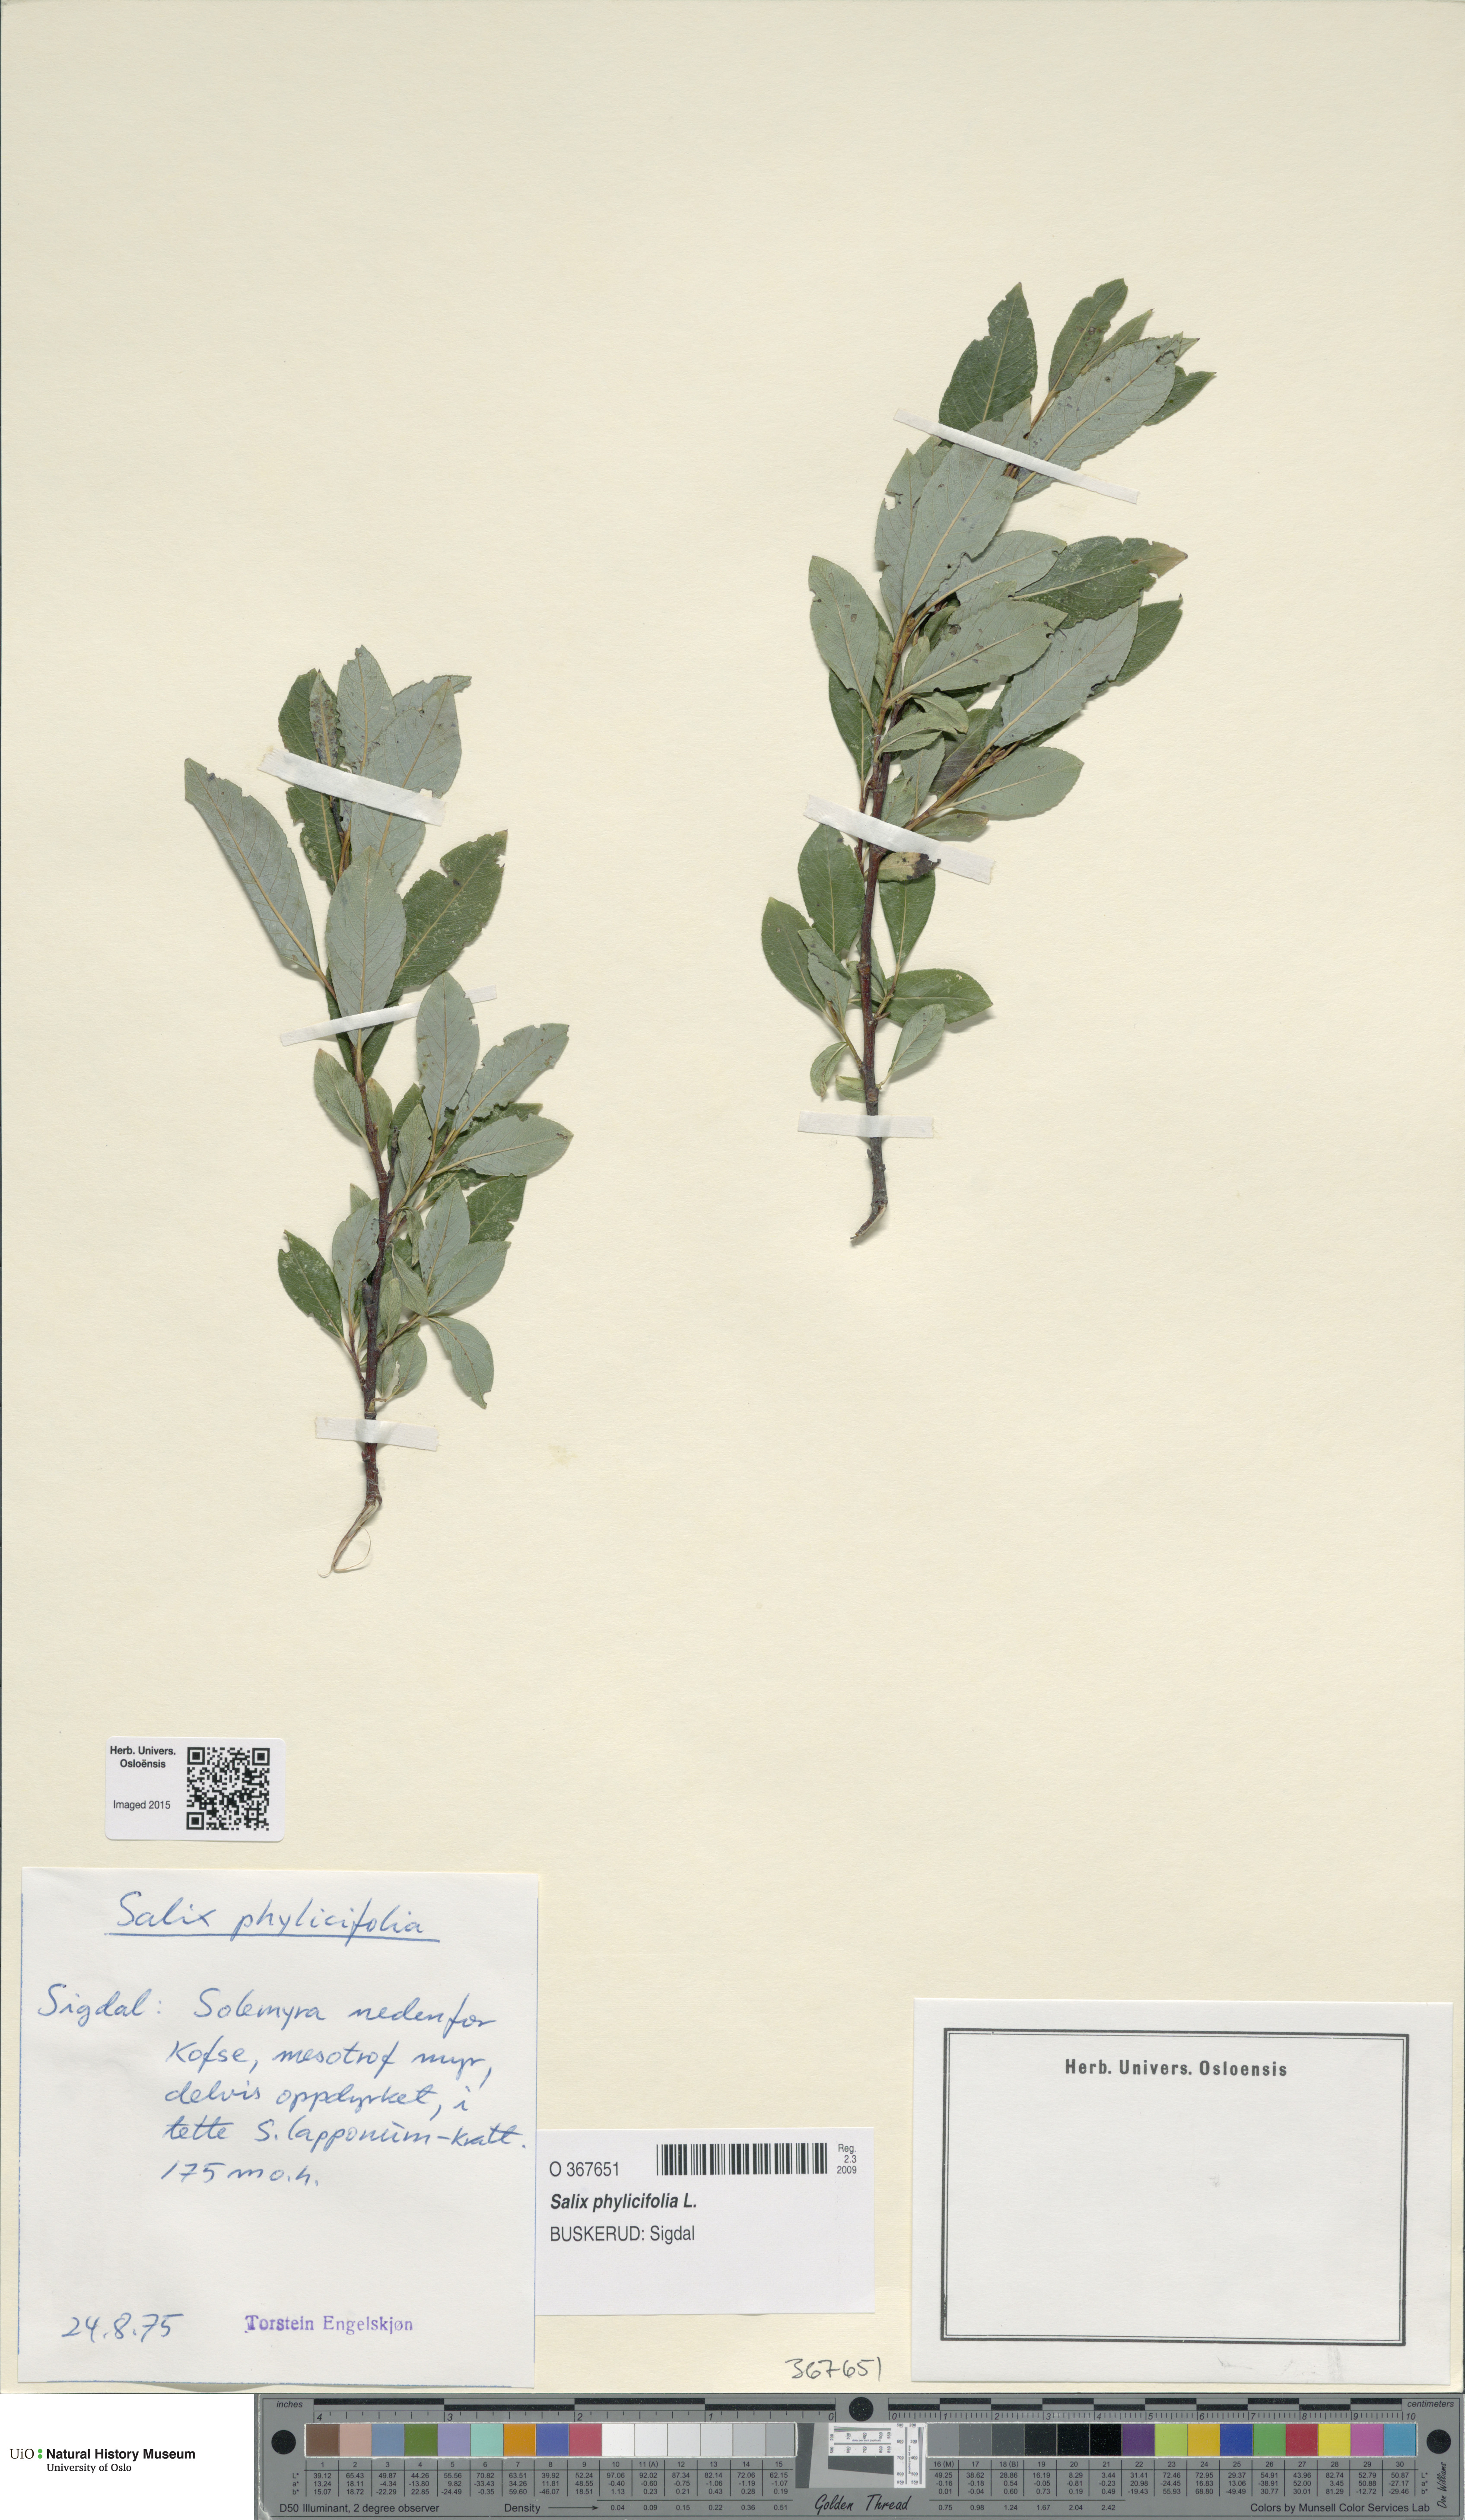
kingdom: Plantae
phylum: Tracheophyta
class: Magnoliopsida
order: Malpighiales
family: Salicaceae
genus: Salix
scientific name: Salix phylicifolia
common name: Tea-leaved willow
